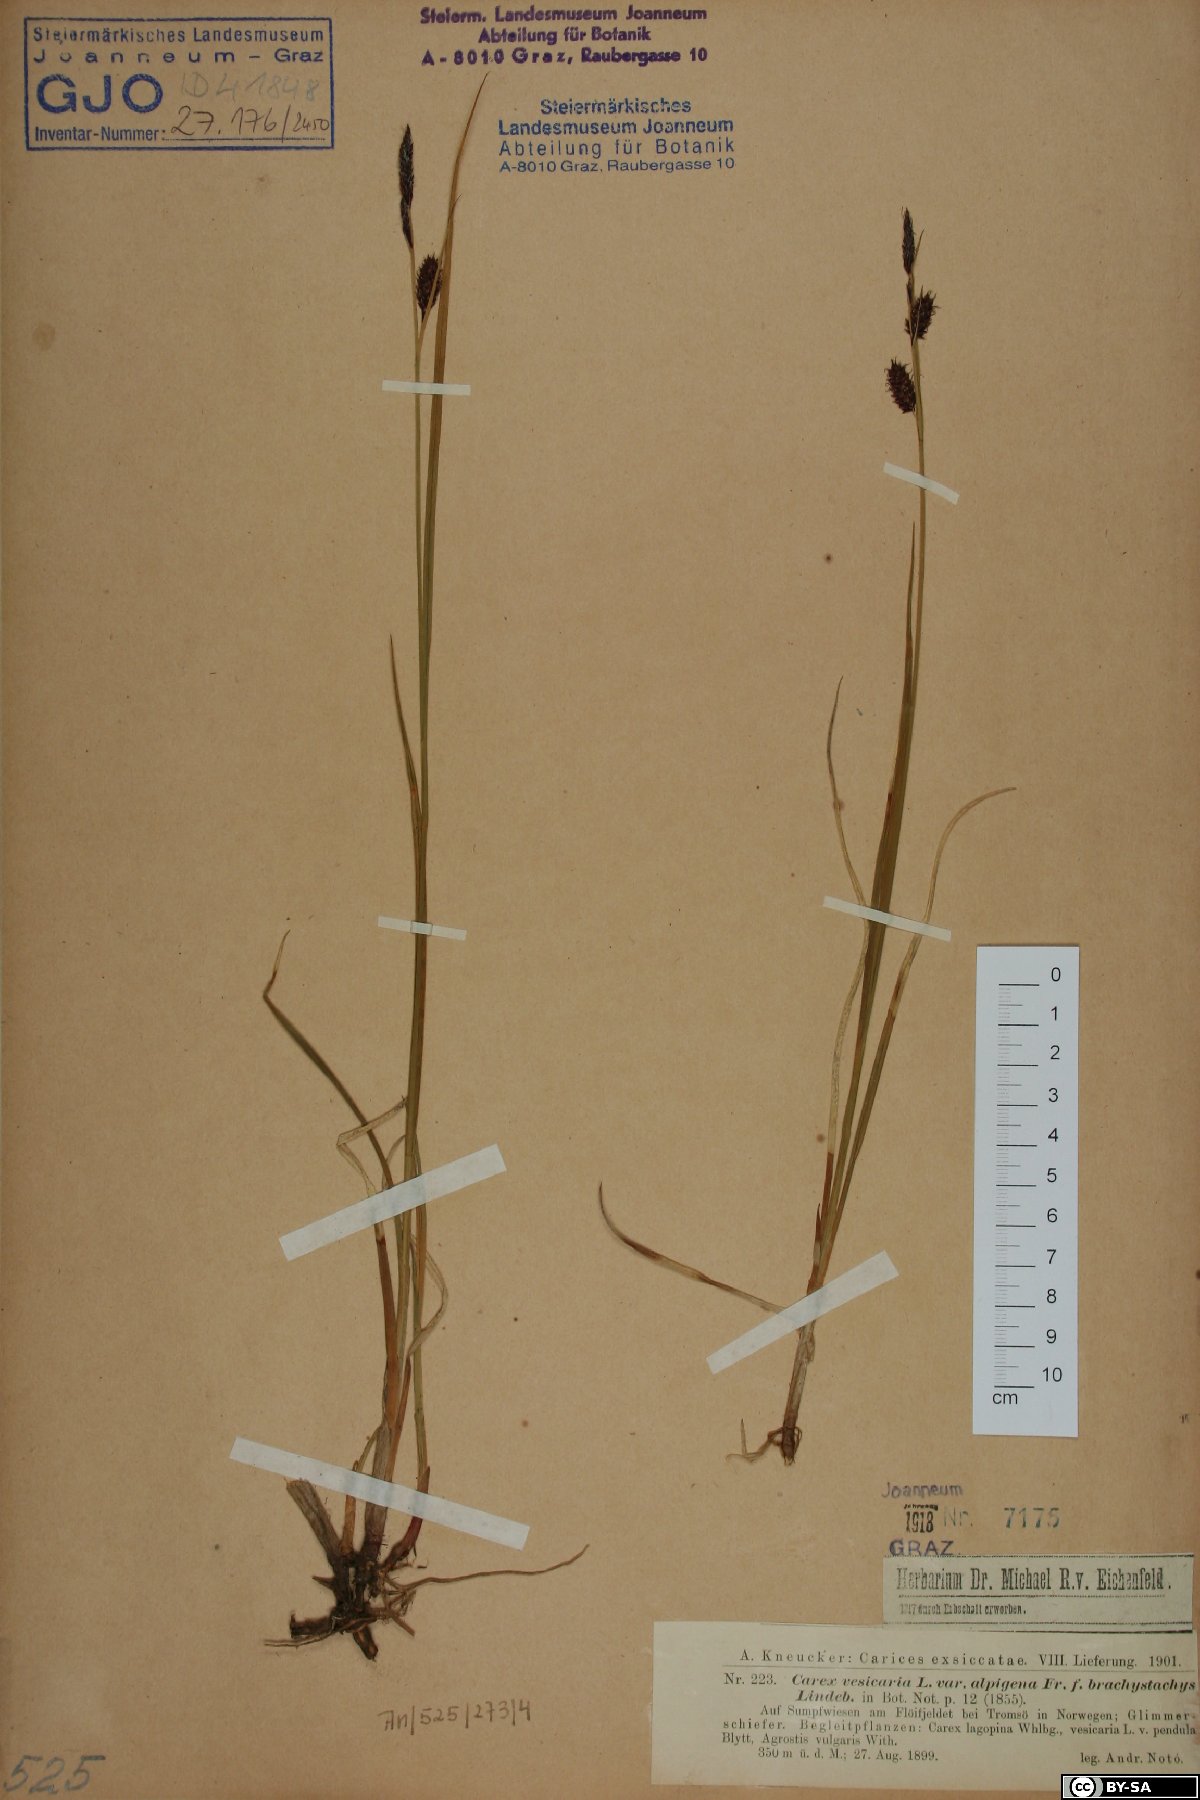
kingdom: Plantae
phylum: Tracheophyta
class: Liliopsida
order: Poales
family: Cyperaceae
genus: Carex
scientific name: Carex vesicaria
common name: Bladder-sedge
